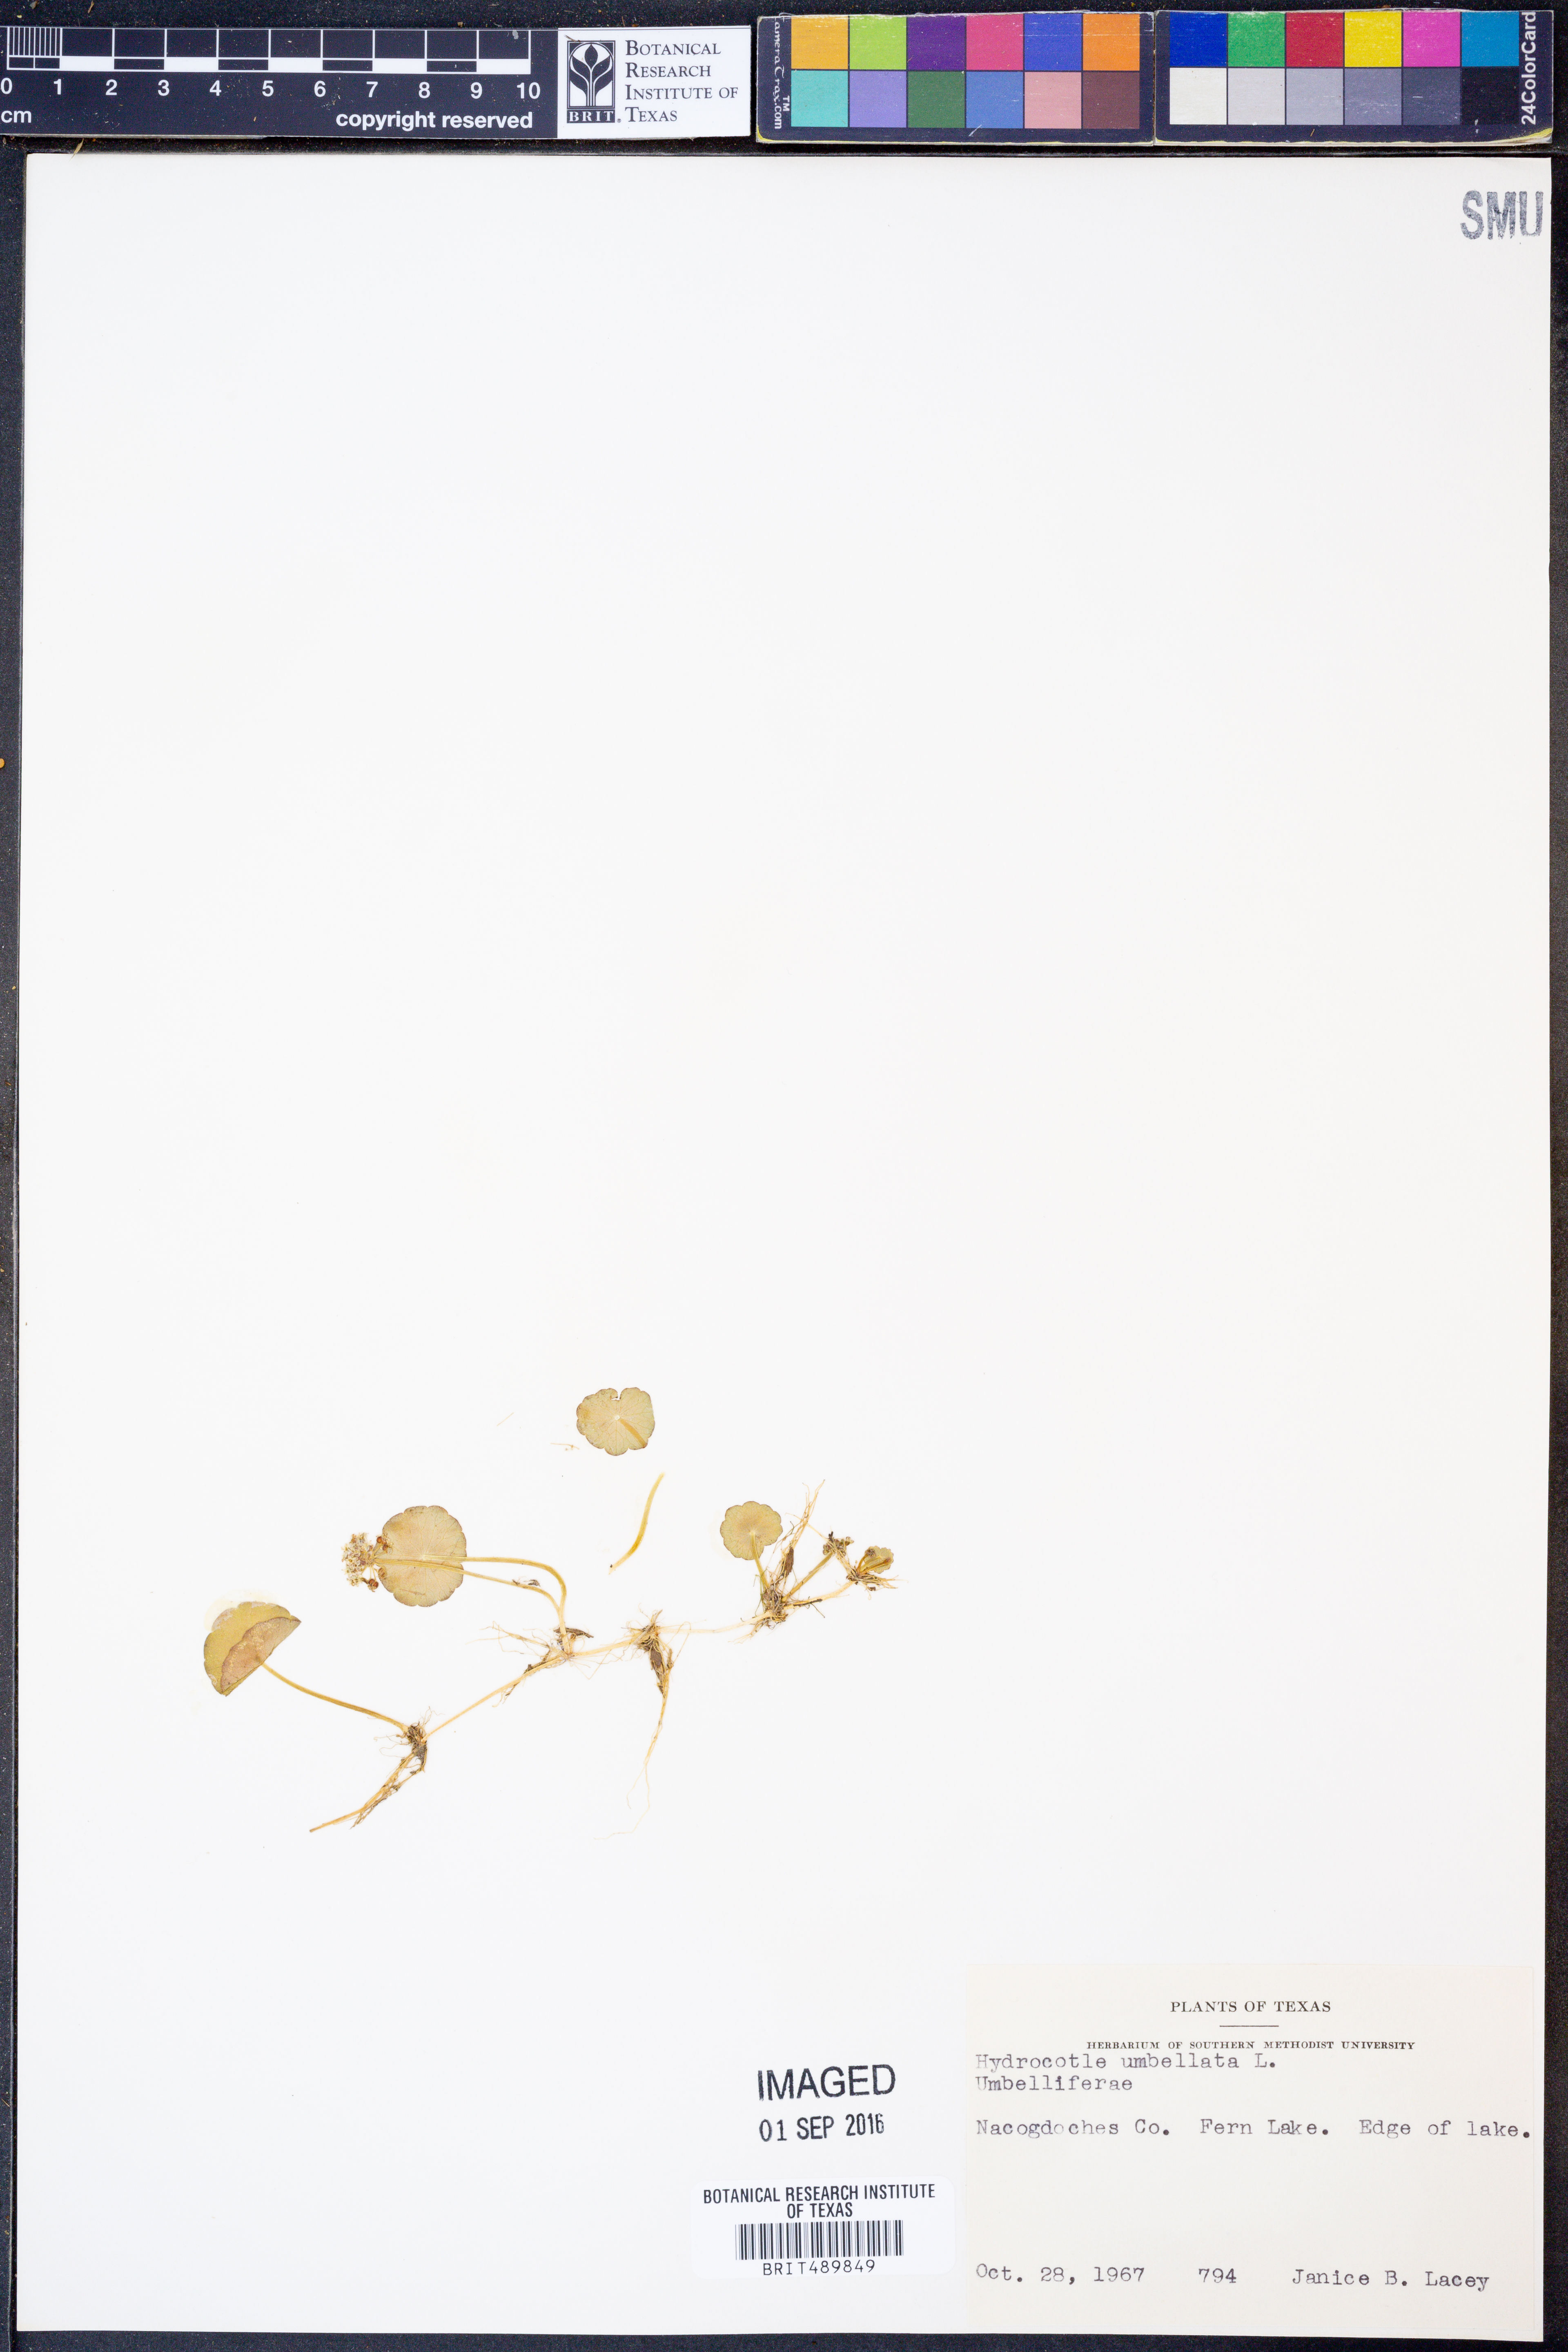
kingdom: Plantae
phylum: Tracheophyta
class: Magnoliopsida
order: Apiales
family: Araliaceae
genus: Hydrocotyle
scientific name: Hydrocotyle umbellata
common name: Water pennywort
